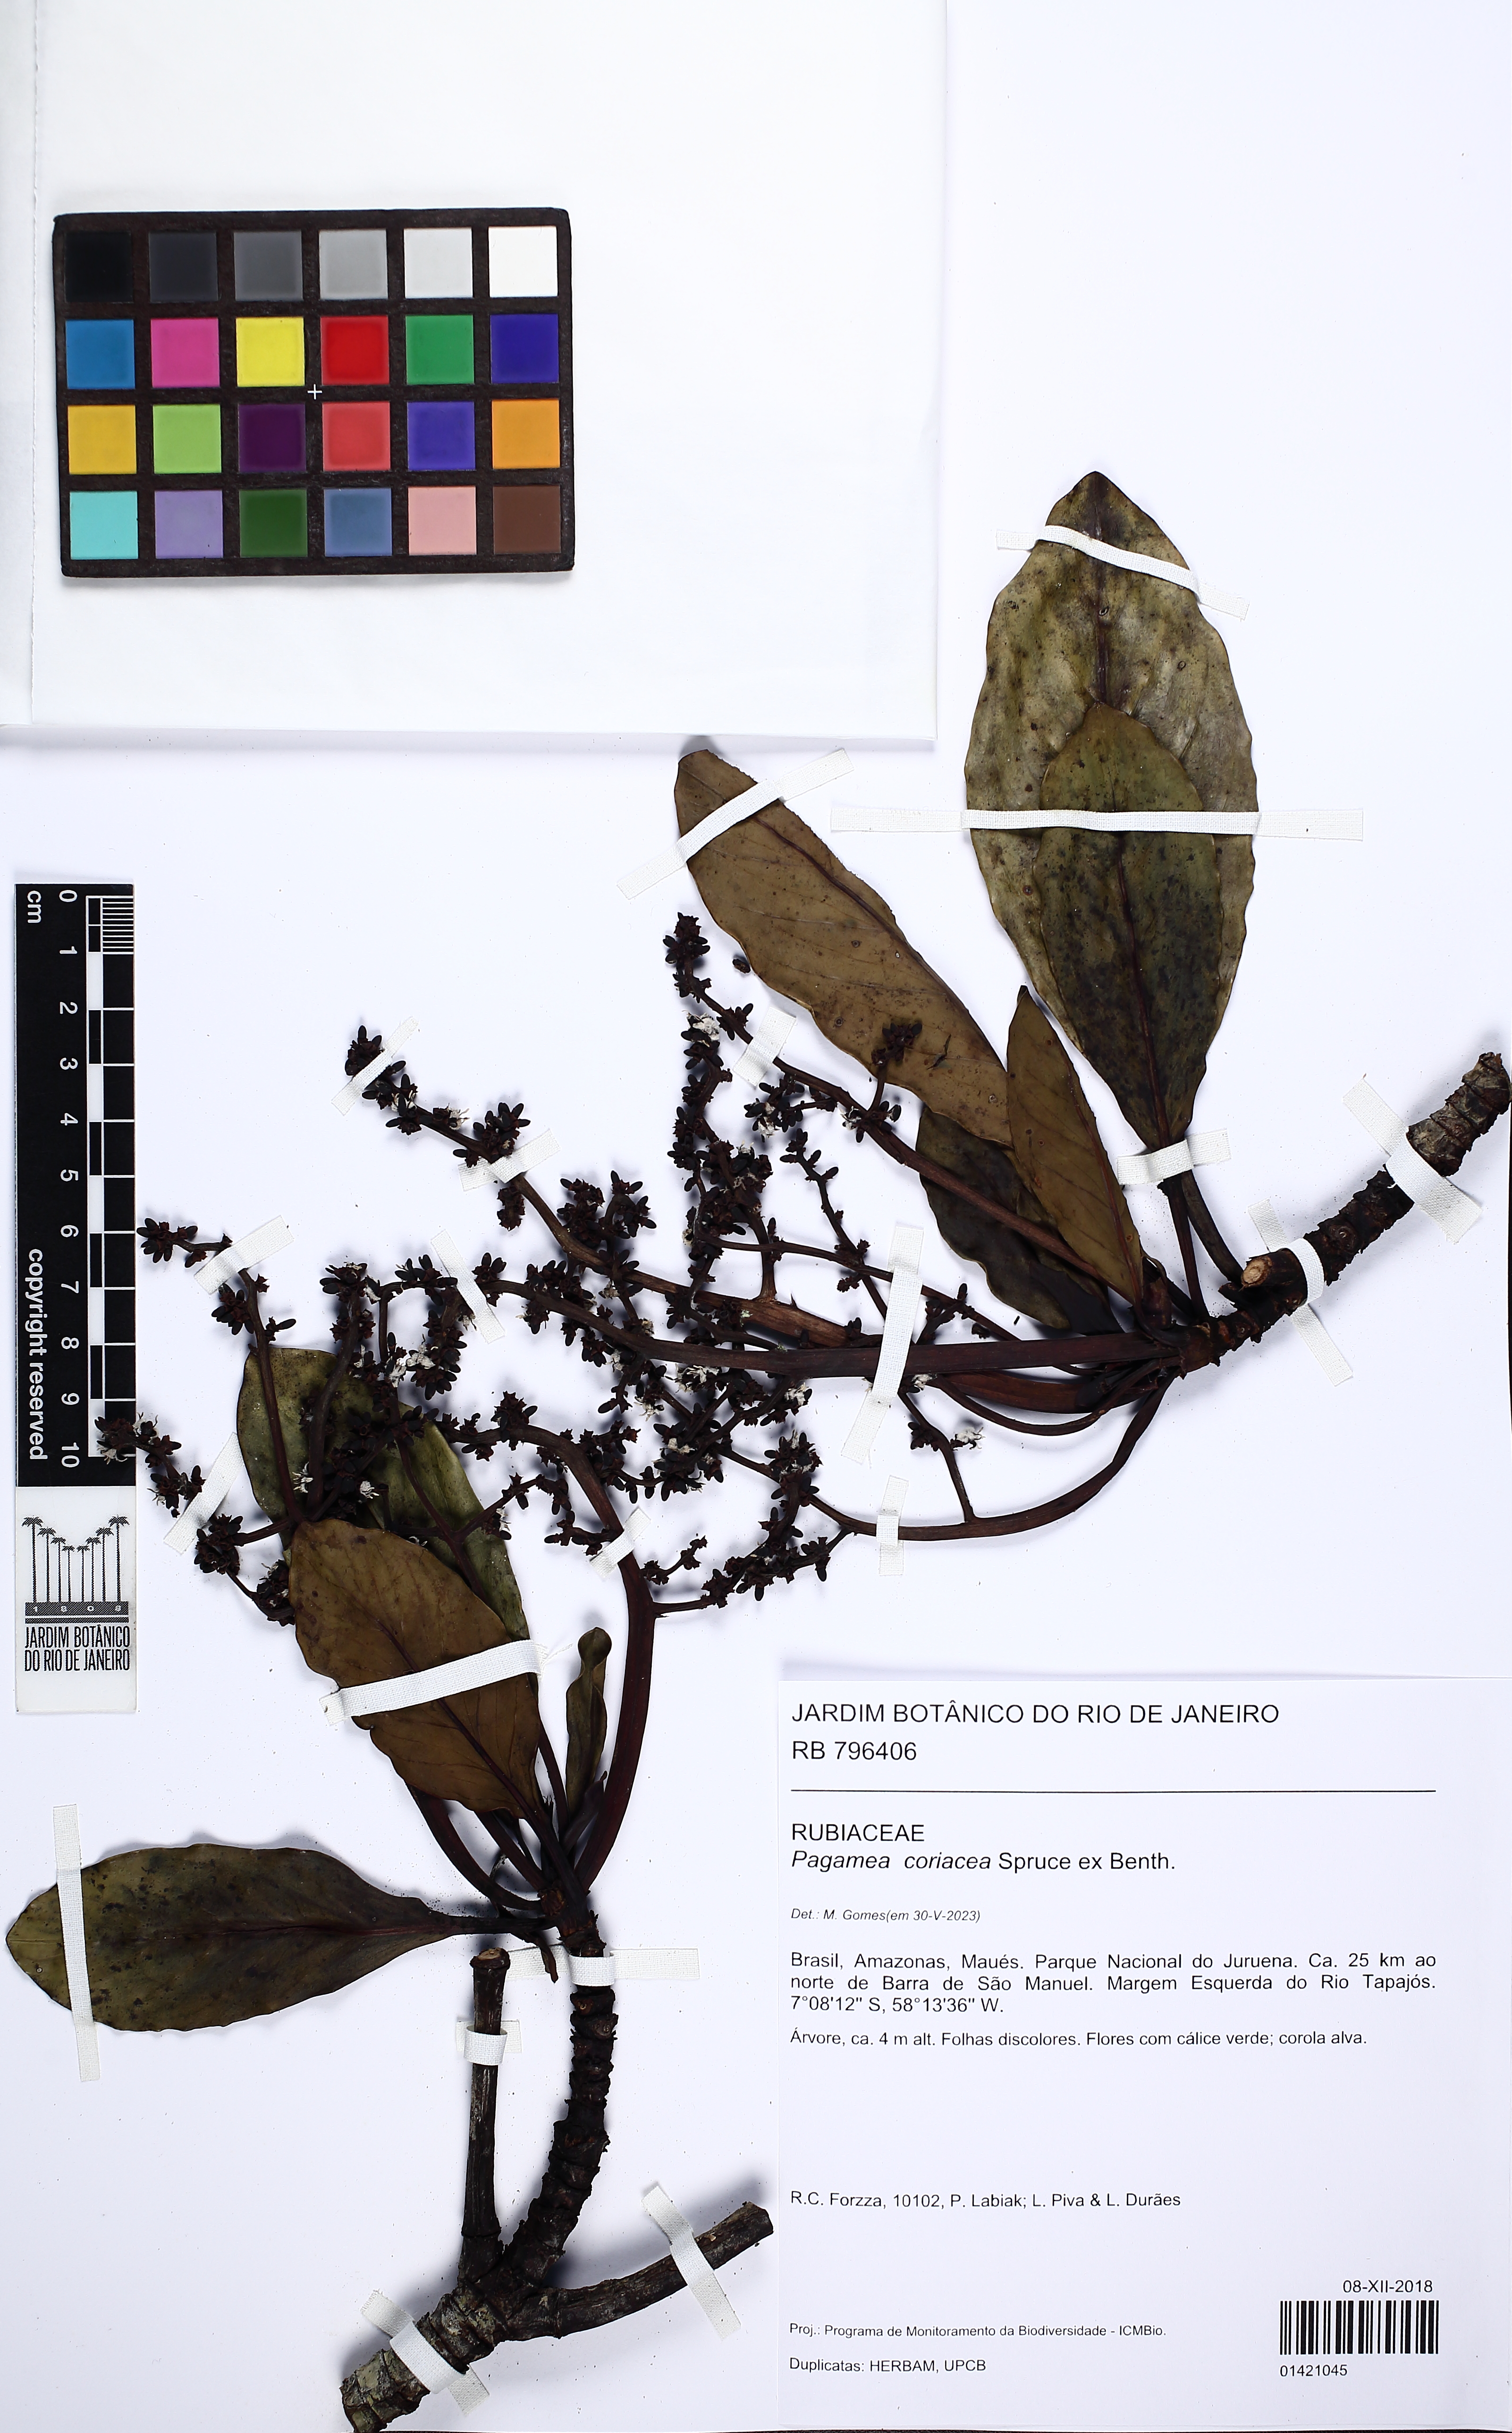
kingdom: Plantae
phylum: Tracheophyta
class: Magnoliopsida
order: Gentianales
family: Rubiaceae
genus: Pagamea
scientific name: Pagamea coriacea
